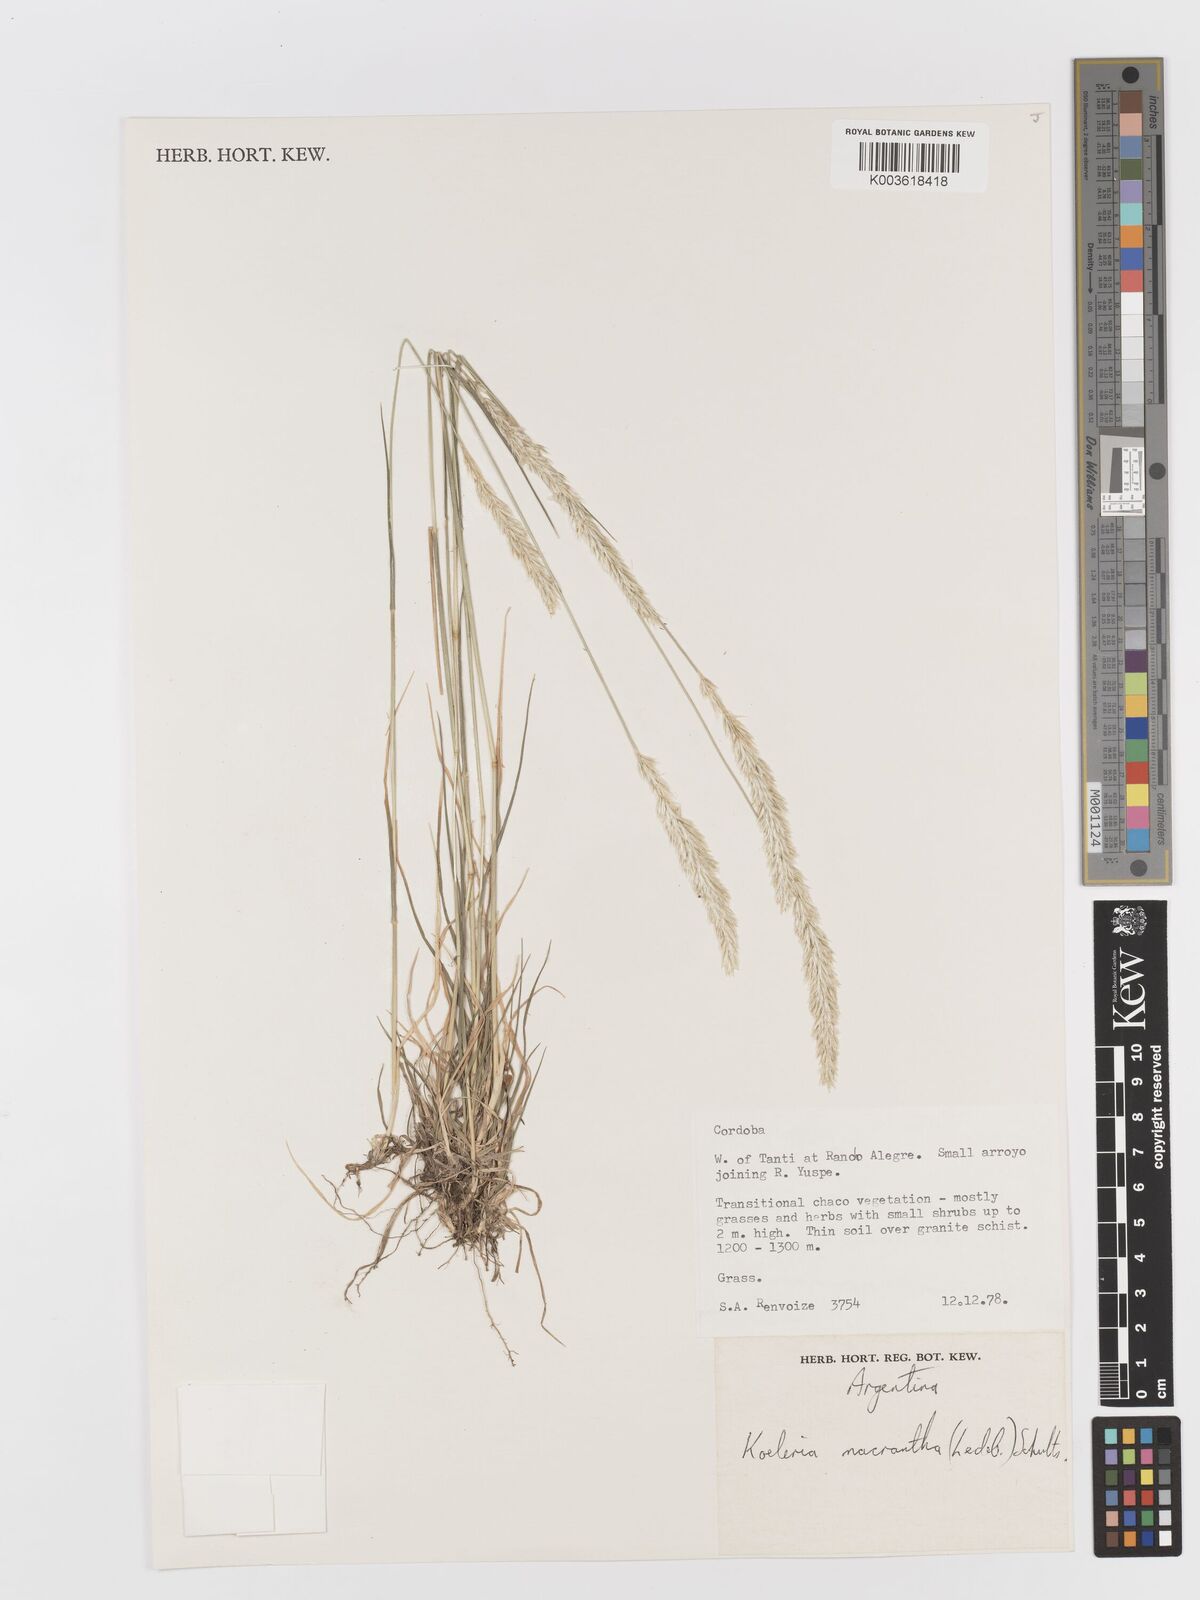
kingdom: Plantae
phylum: Tracheophyta
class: Liliopsida
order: Poales
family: Poaceae
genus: Koeleria
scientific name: Koeleria
